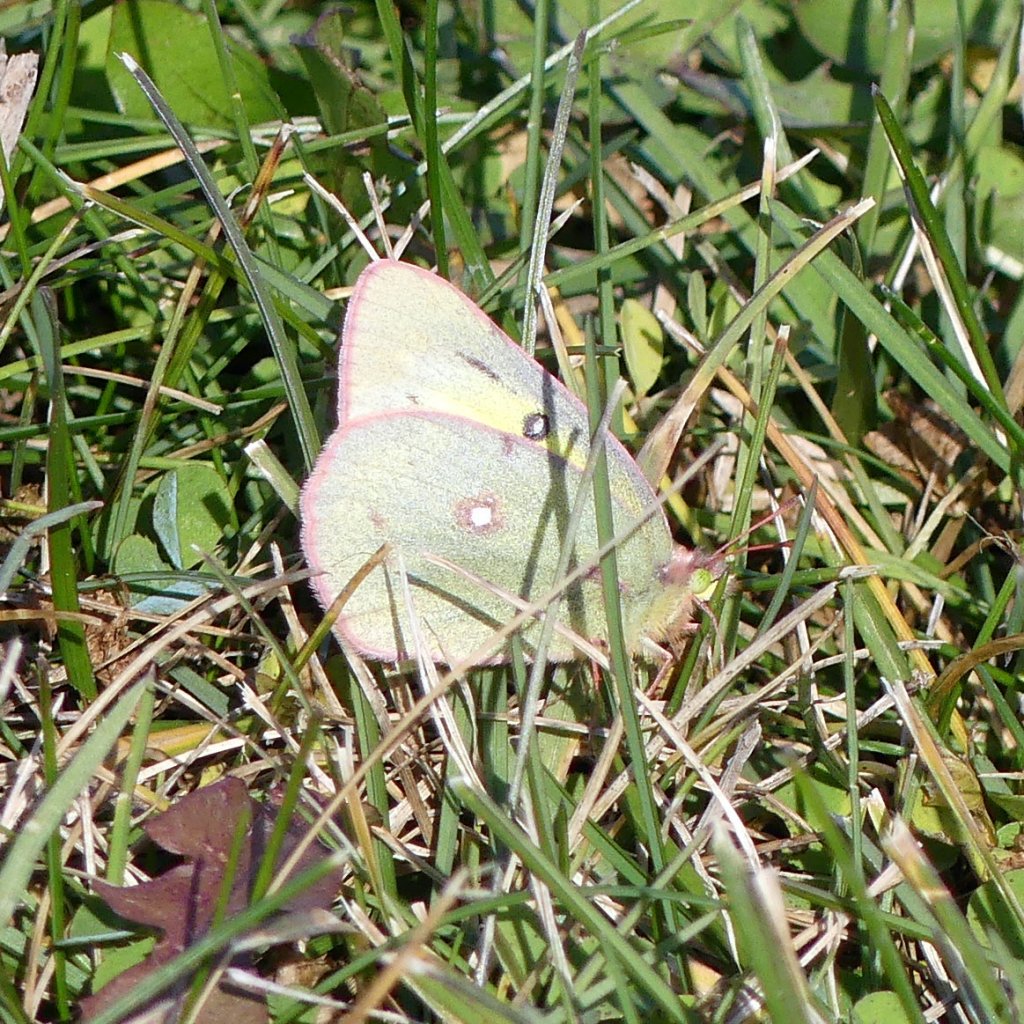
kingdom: Animalia
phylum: Arthropoda
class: Insecta
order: Lepidoptera
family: Pieridae
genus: Colias
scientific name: Colias philodice
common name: Clouded Sulphur
